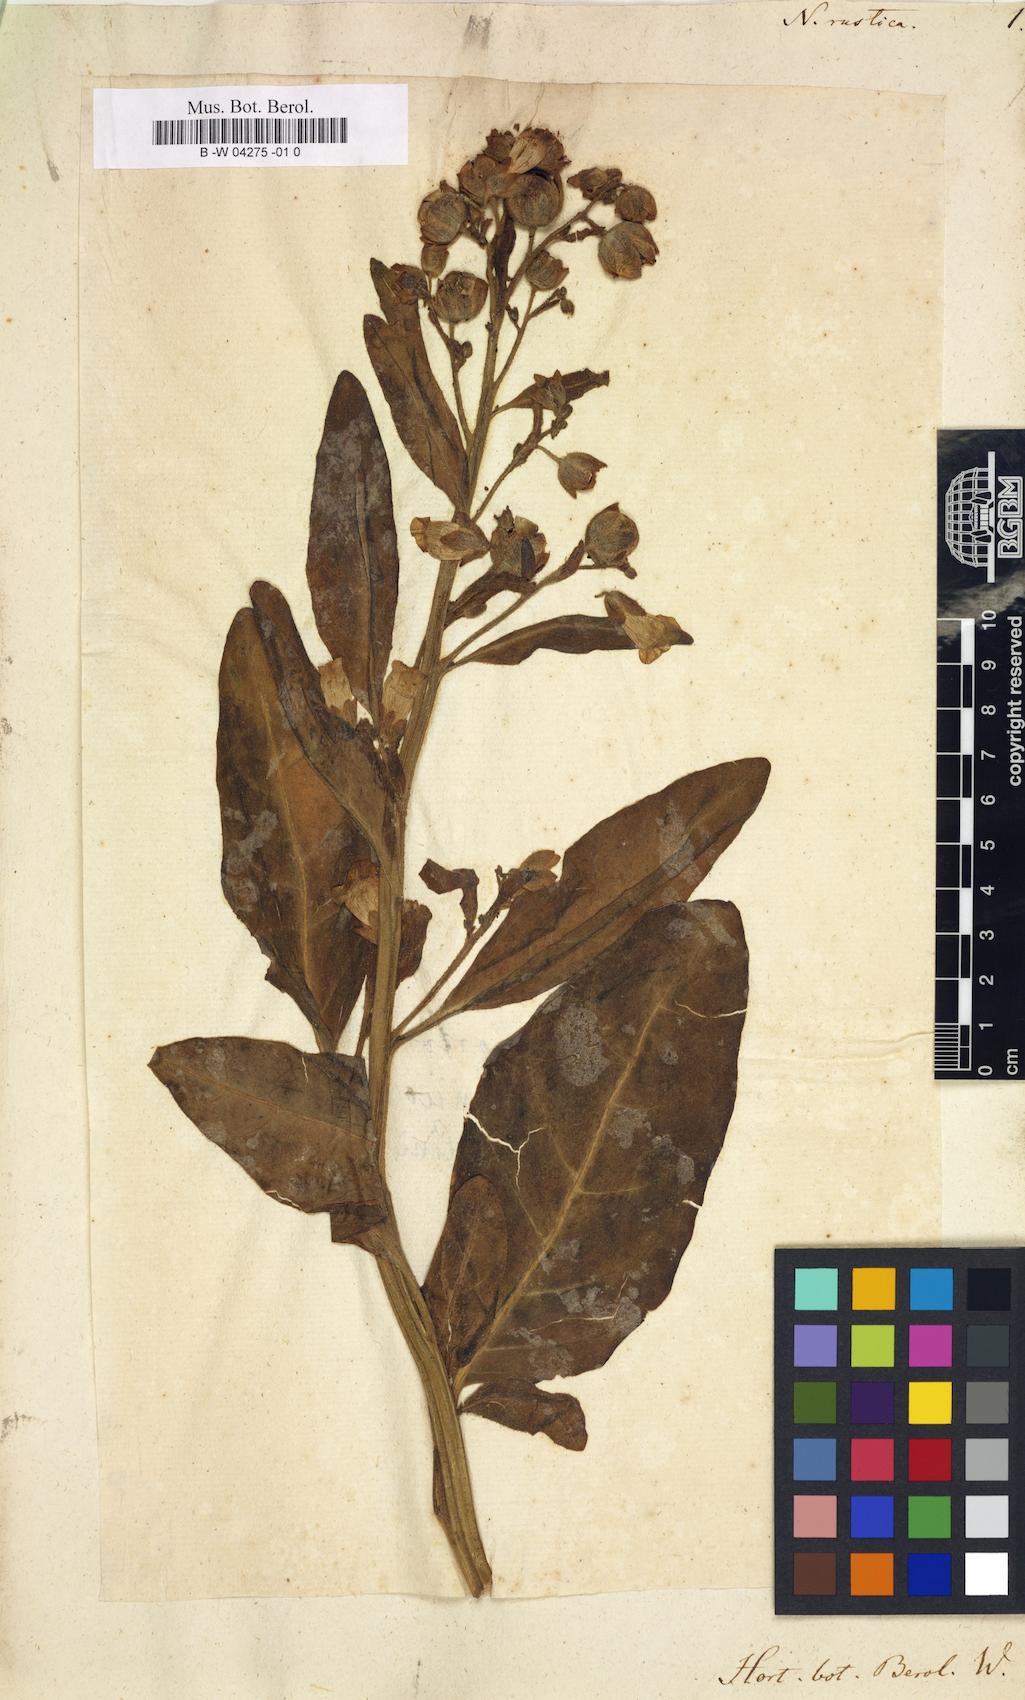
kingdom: Plantae
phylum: Tracheophyta
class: Magnoliopsida
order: Solanales
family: Solanaceae
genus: Nicotiana
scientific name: Nicotiana rustica
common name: Wild tobacco
